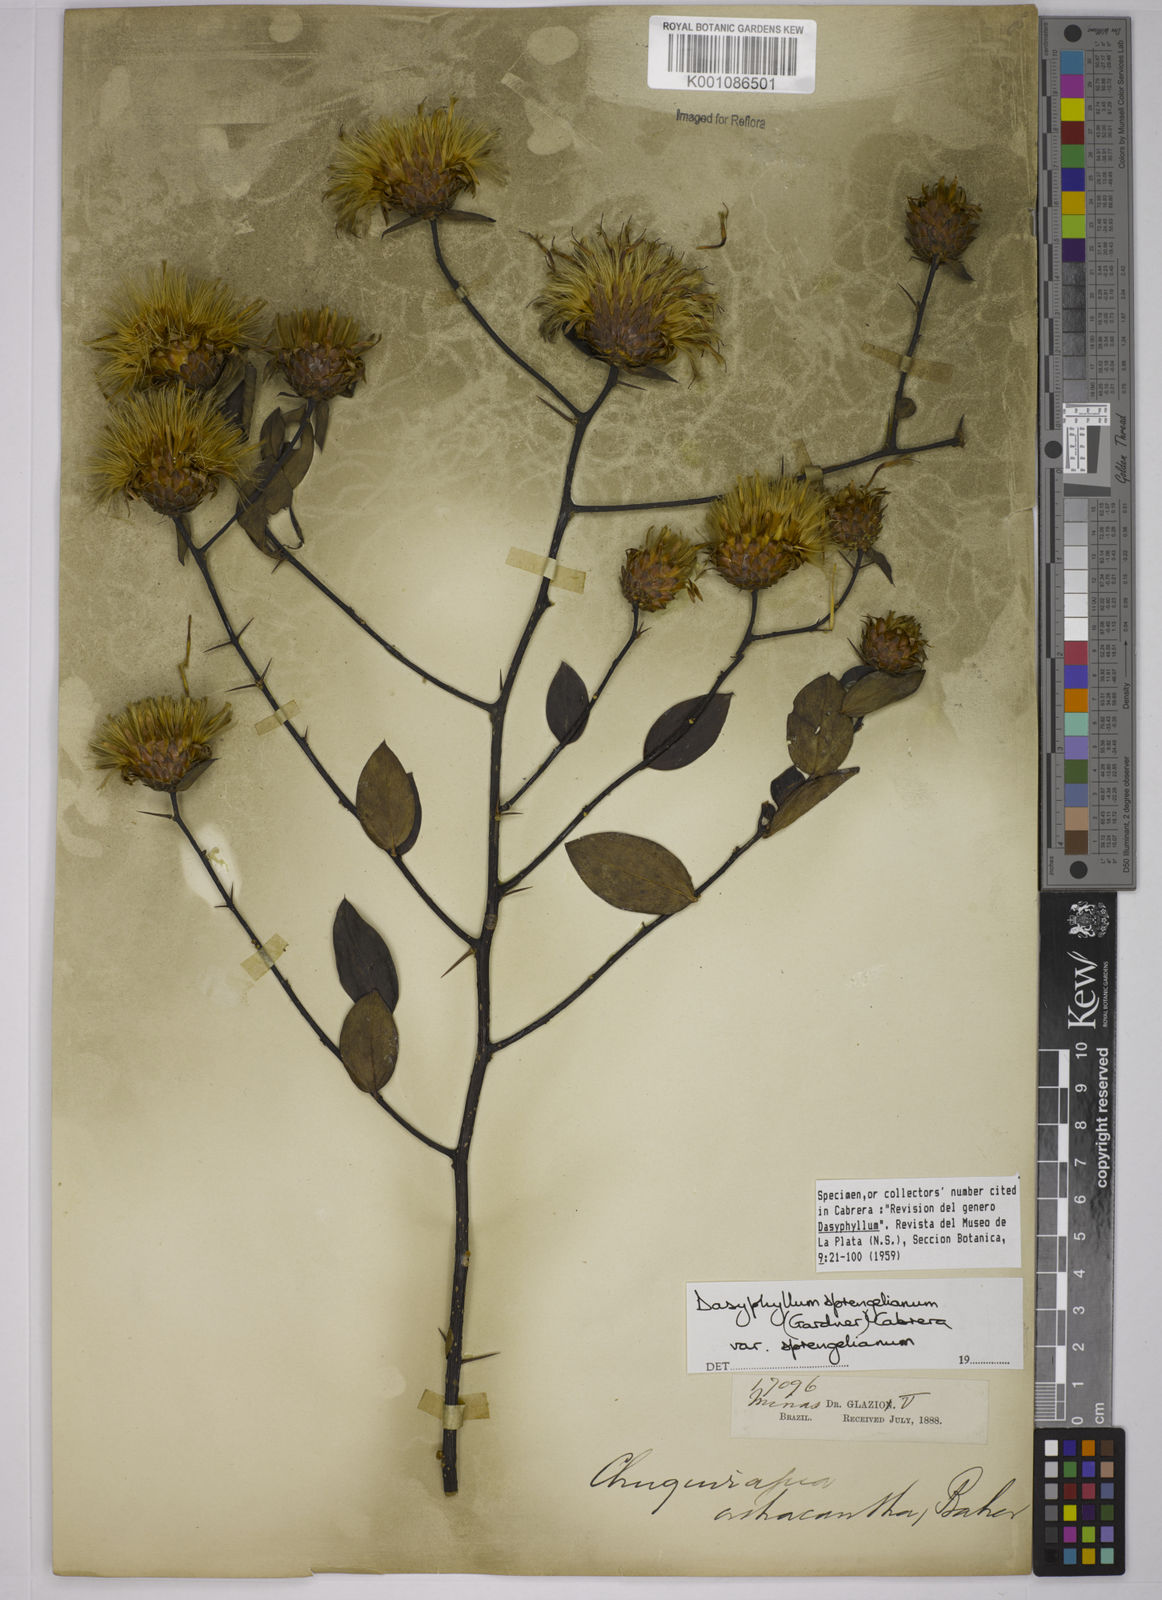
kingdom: Plantae
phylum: Tracheophyta
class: Magnoliopsida
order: Asterales
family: Asteraceae
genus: Dasyphyllum
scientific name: Dasyphyllum sprengelianum
